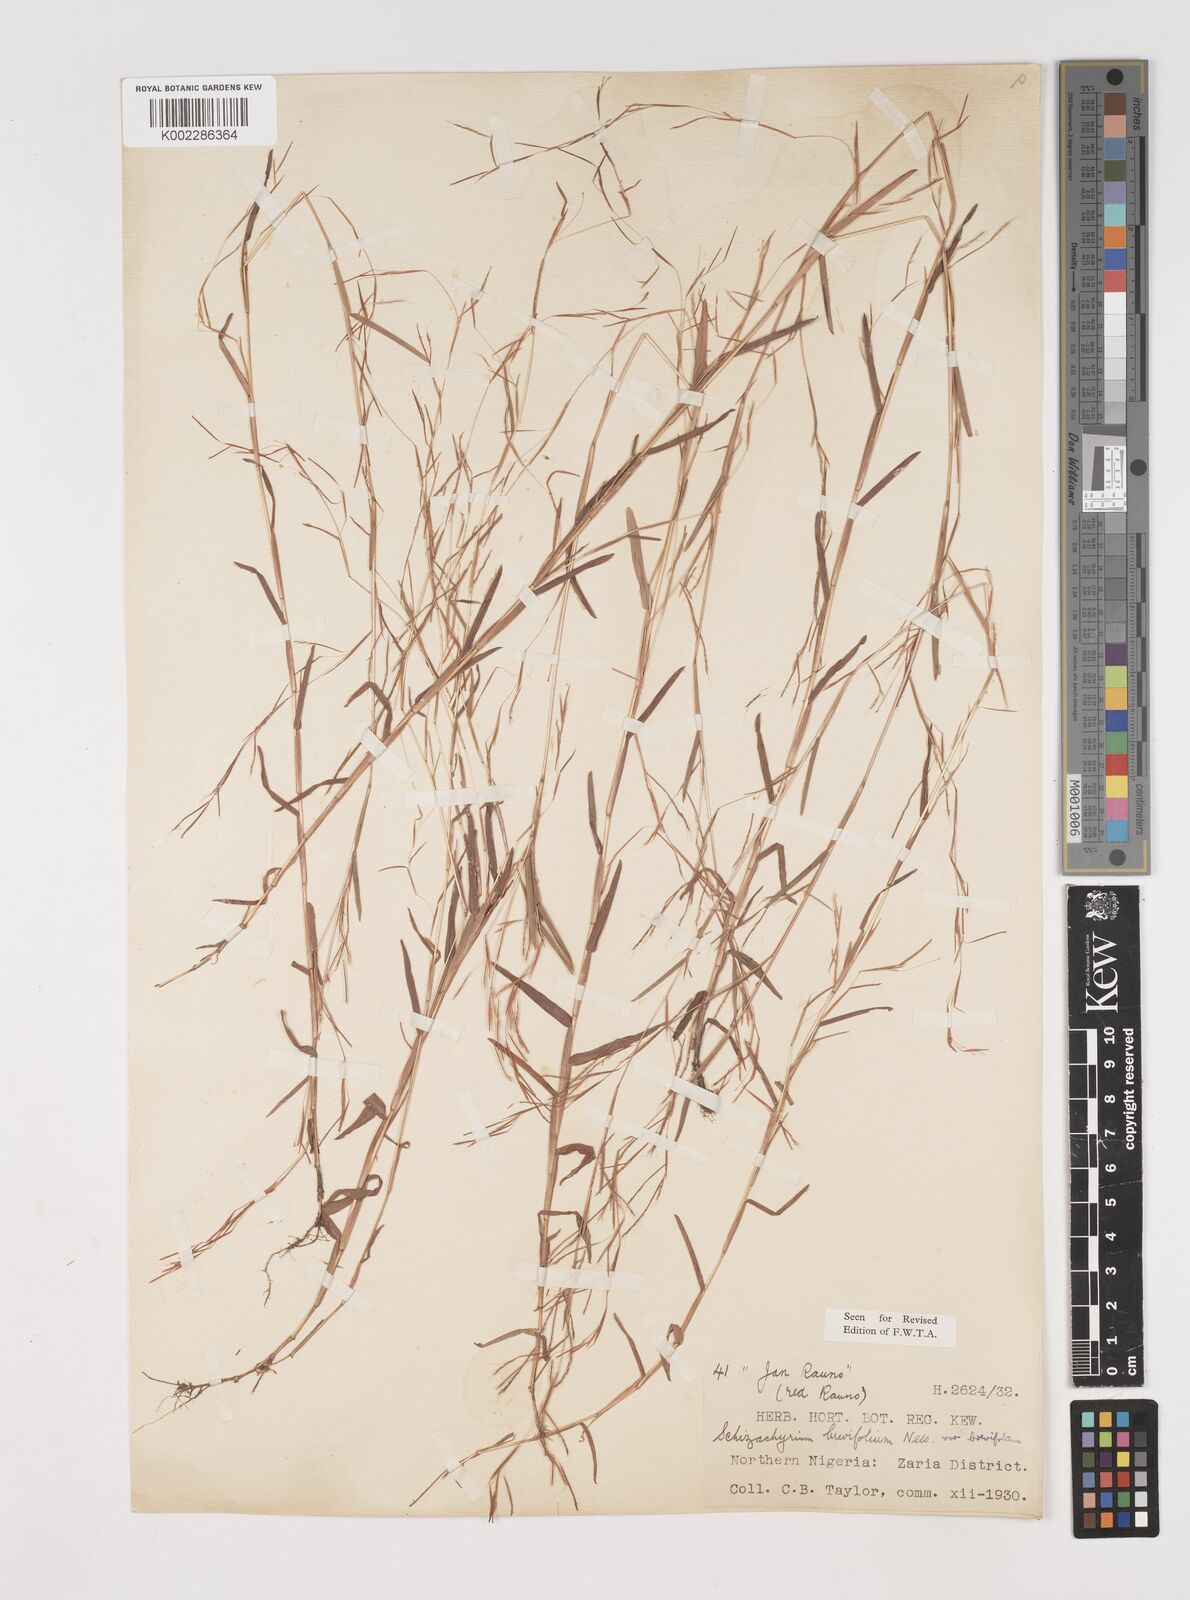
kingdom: Plantae
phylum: Tracheophyta
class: Liliopsida
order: Poales
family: Poaceae
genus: Schizachyrium
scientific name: Schizachyrium brevifolium
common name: Serillo dulce
